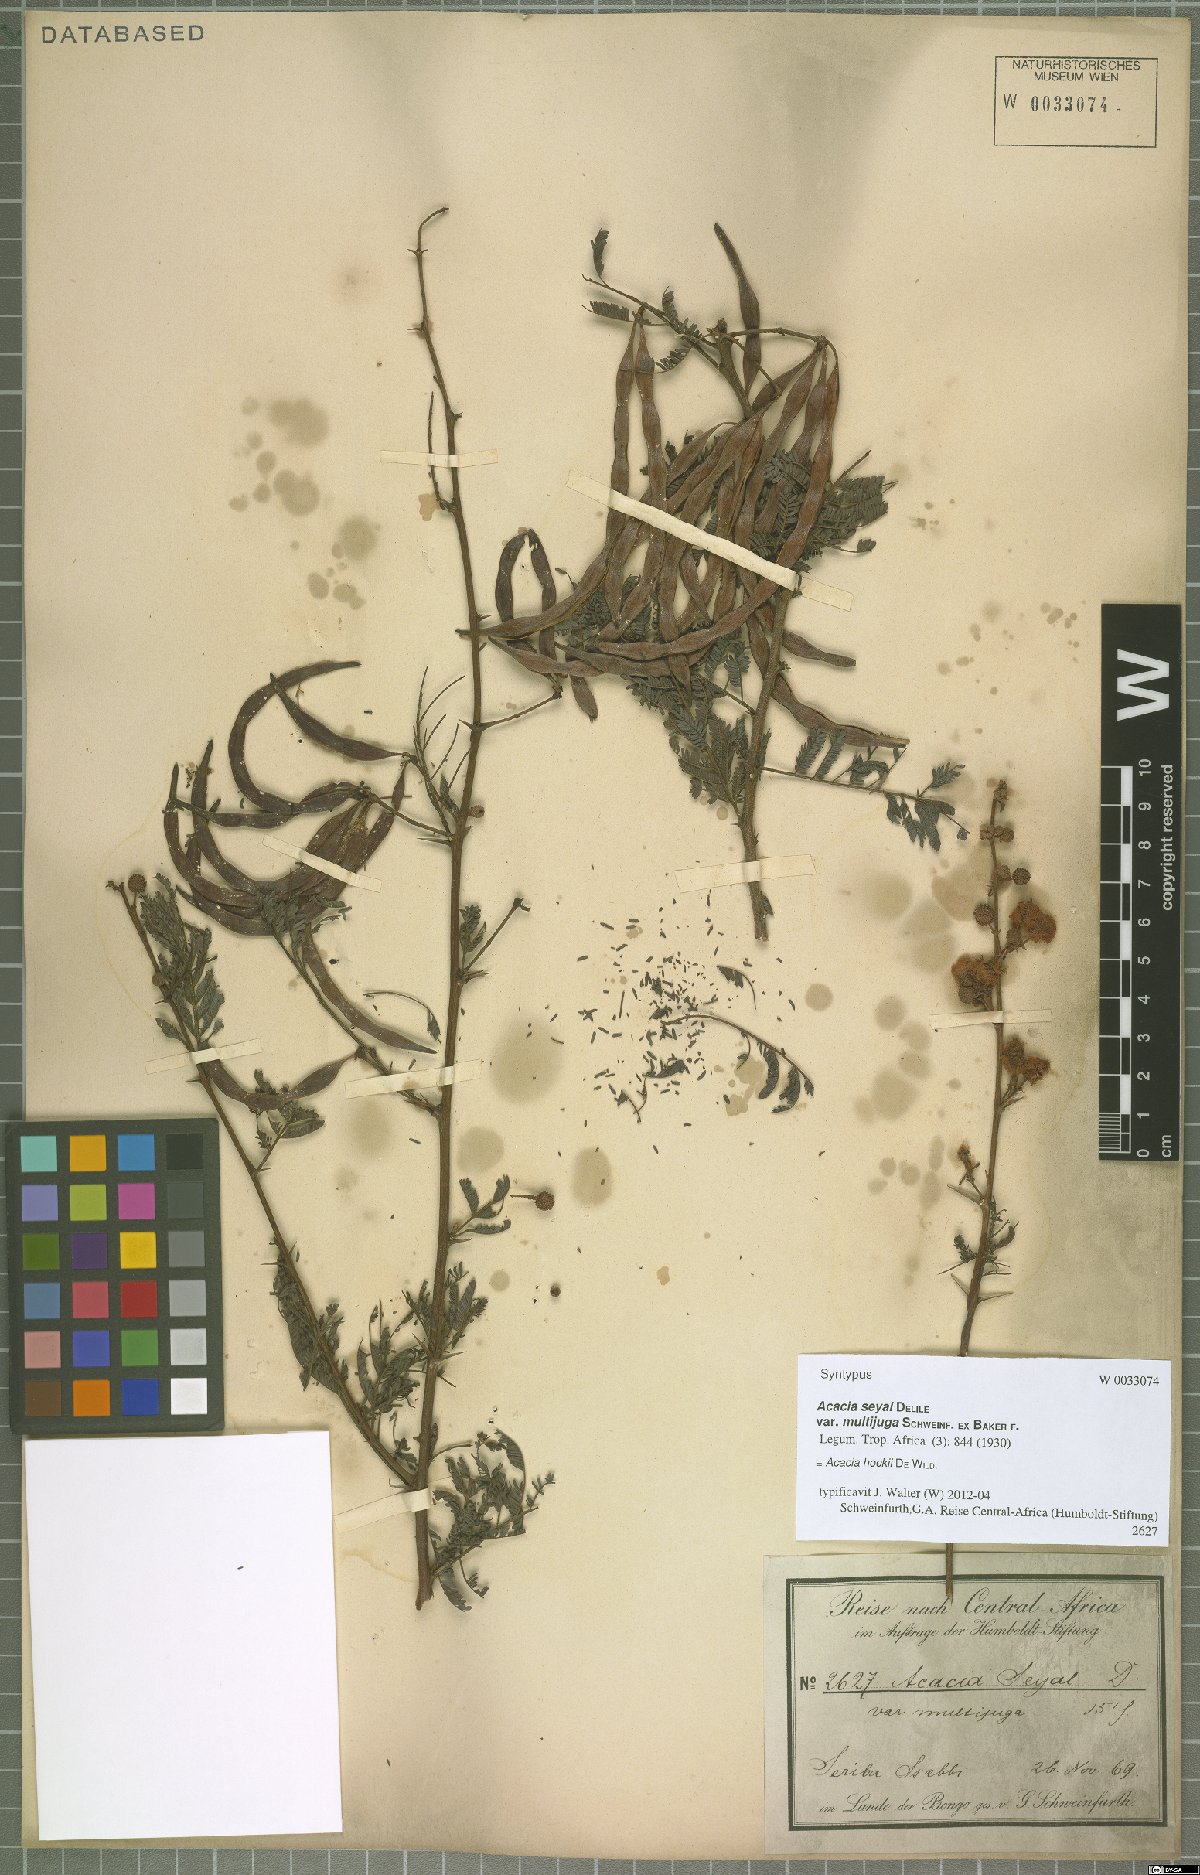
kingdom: Plantae
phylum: Tracheophyta
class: Magnoliopsida
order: Fabales
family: Fabaceae
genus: Vachellia
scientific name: Vachellia hockii
